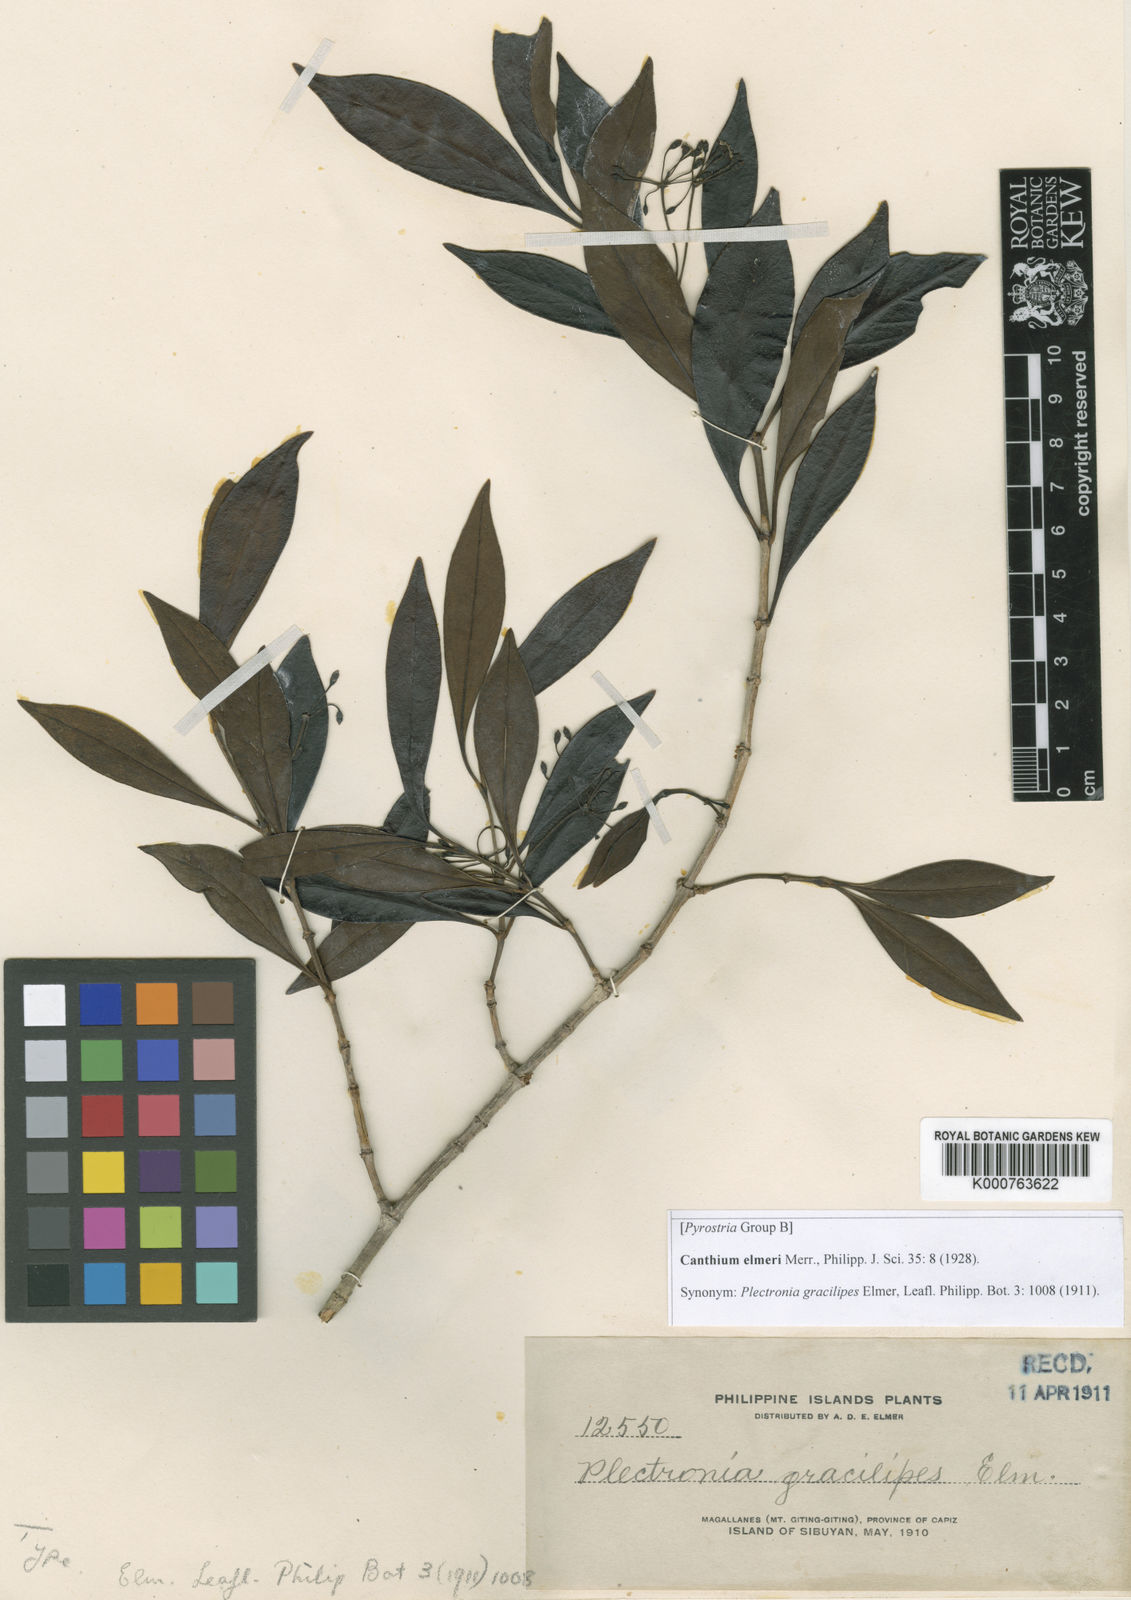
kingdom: Plantae
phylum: Tracheophyta
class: Magnoliopsida
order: Gentianales
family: Rubiaceae
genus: Dibridsonia
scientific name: Dibridsonia culionensis
